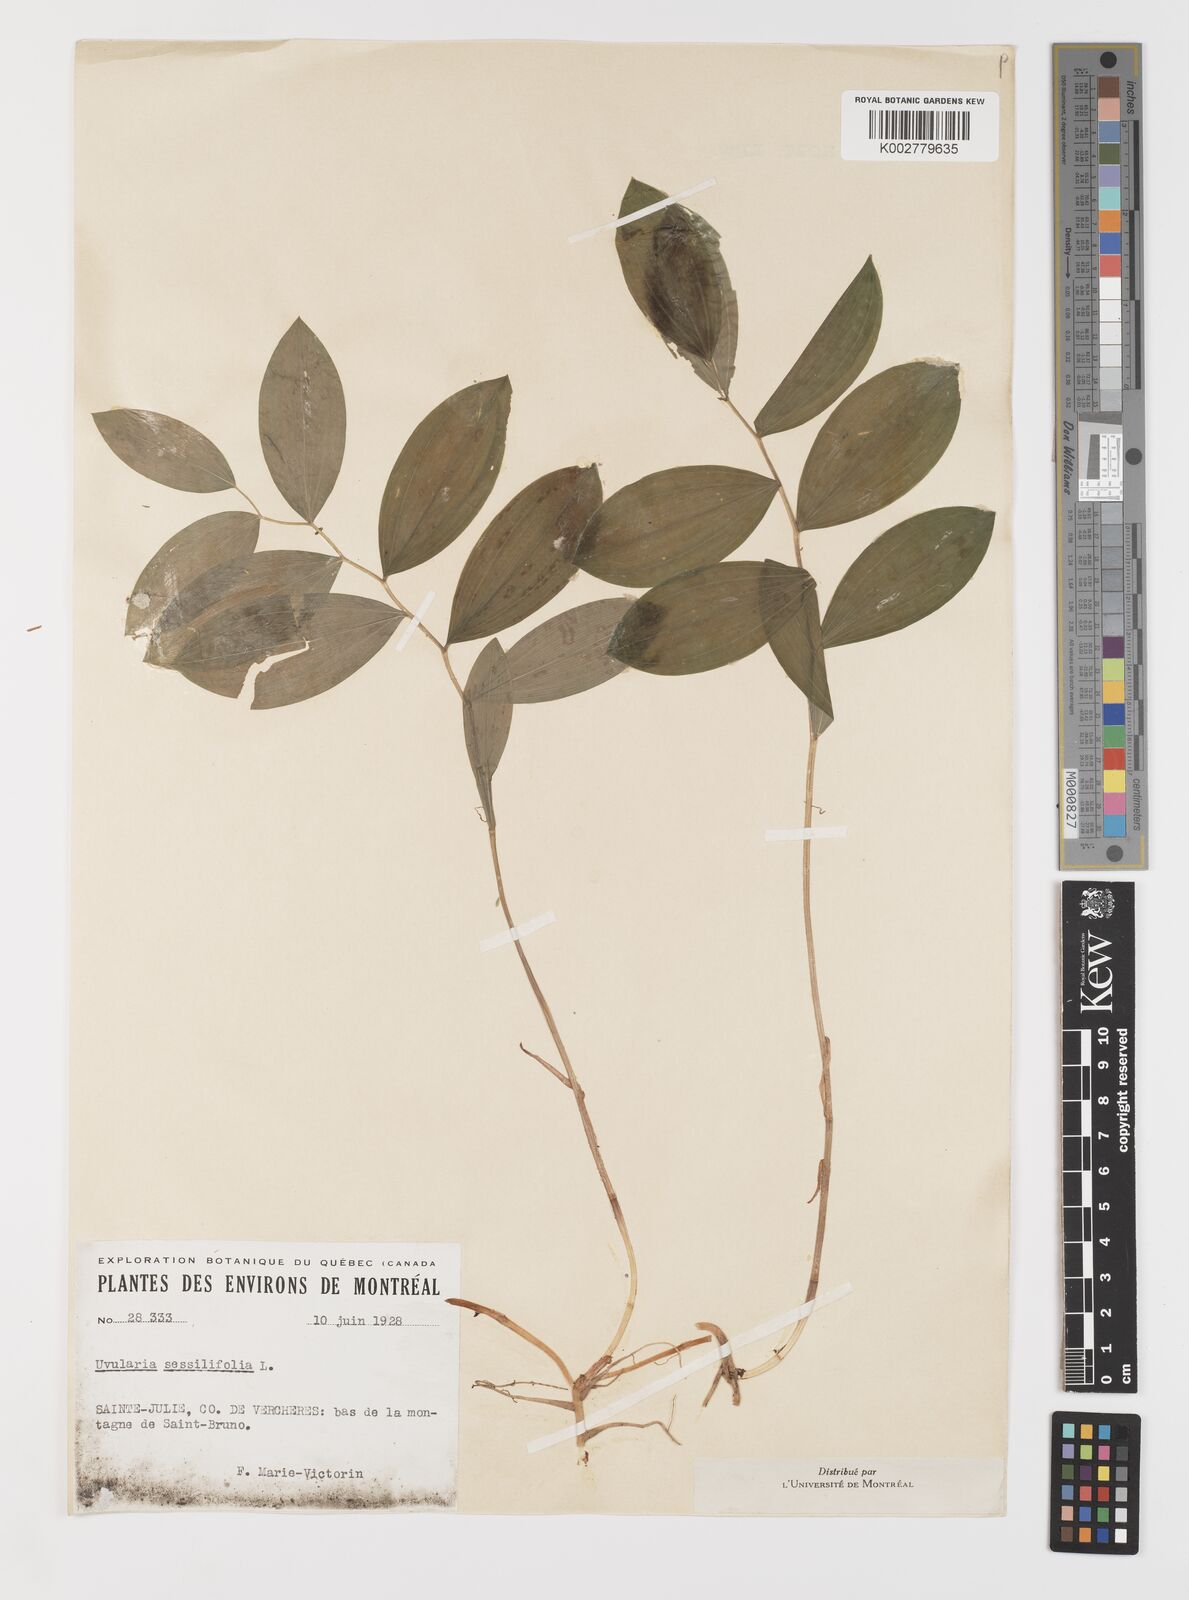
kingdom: Plantae
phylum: Tracheophyta
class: Liliopsida
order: Liliales
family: Colchicaceae
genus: Uvularia
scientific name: Uvularia sessilifolia
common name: Straw-lily
